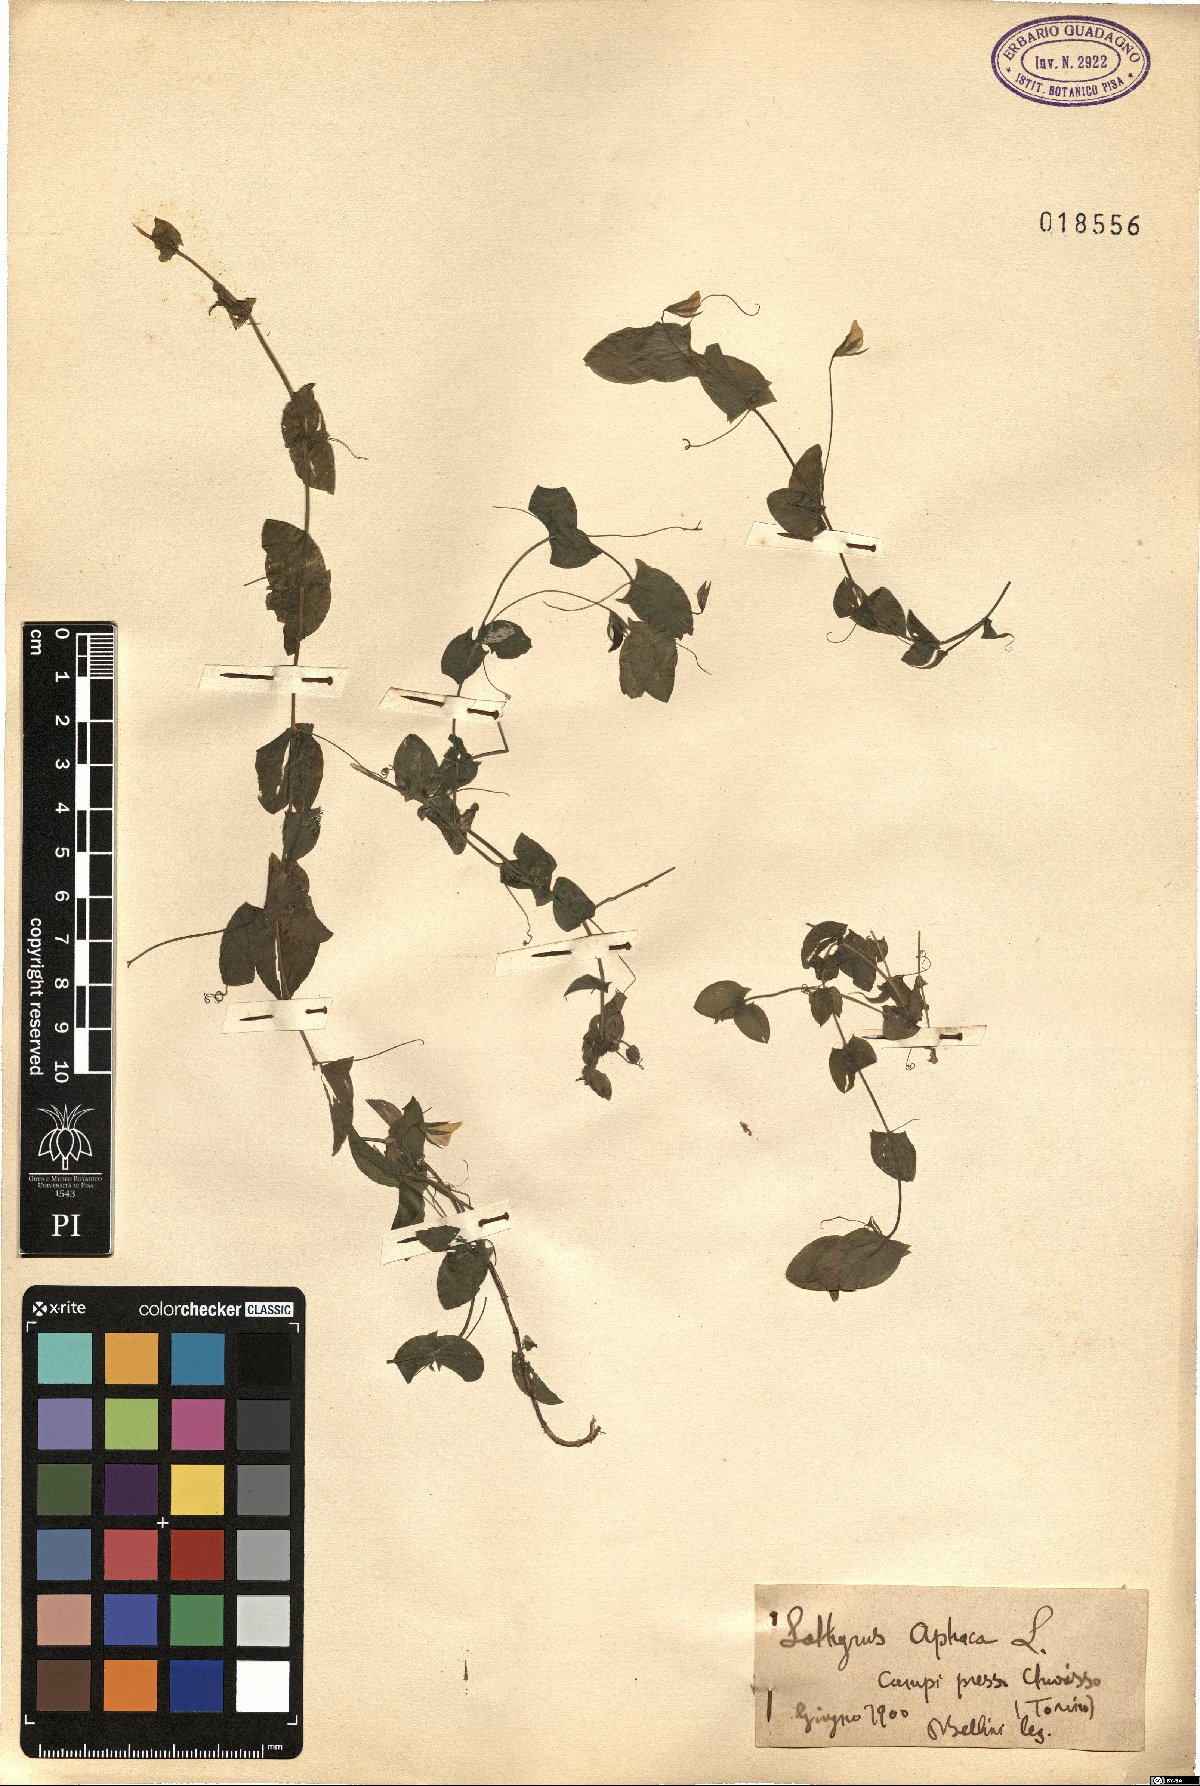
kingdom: Plantae
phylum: Tracheophyta
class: Magnoliopsida
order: Fabales
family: Fabaceae
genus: Lathyrus
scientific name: Lathyrus aphaca
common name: Yellow vetchling
